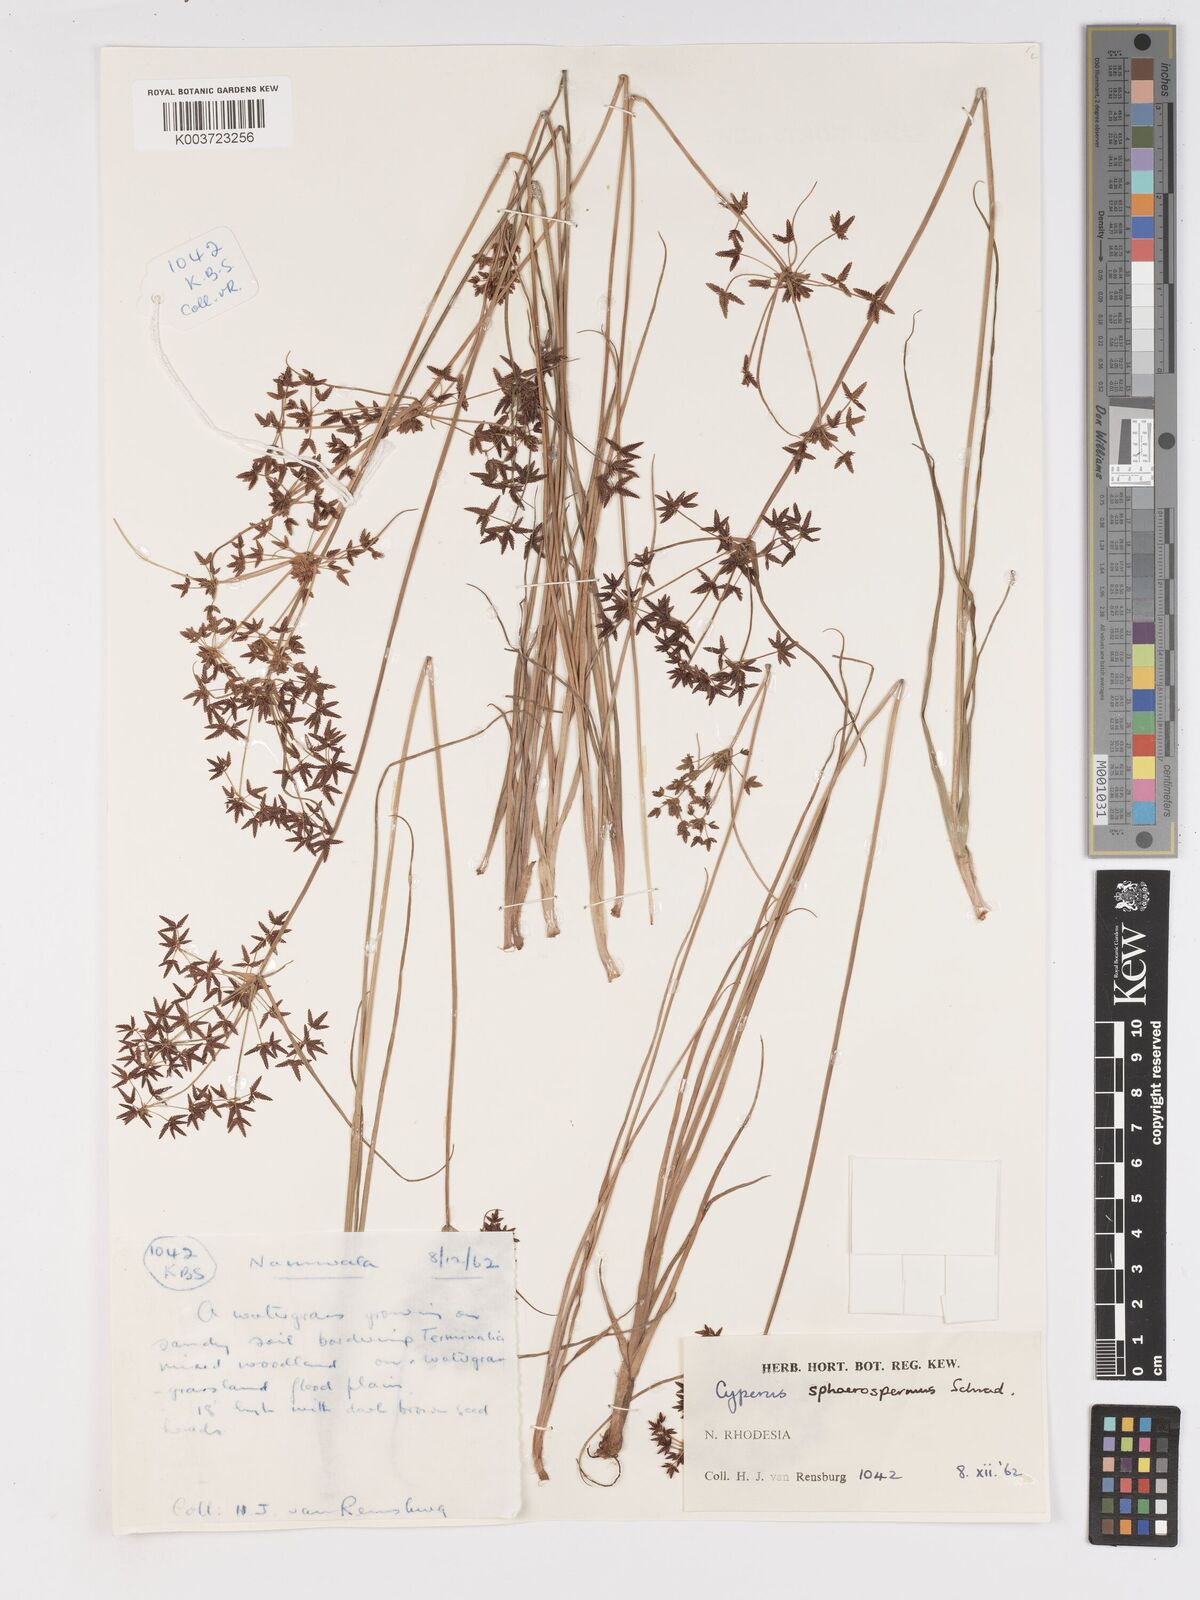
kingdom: Plantae
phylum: Tracheophyta
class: Liliopsida
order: Poales
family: Cyperaceae
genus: Cyperus
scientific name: Cyperus denudatus
